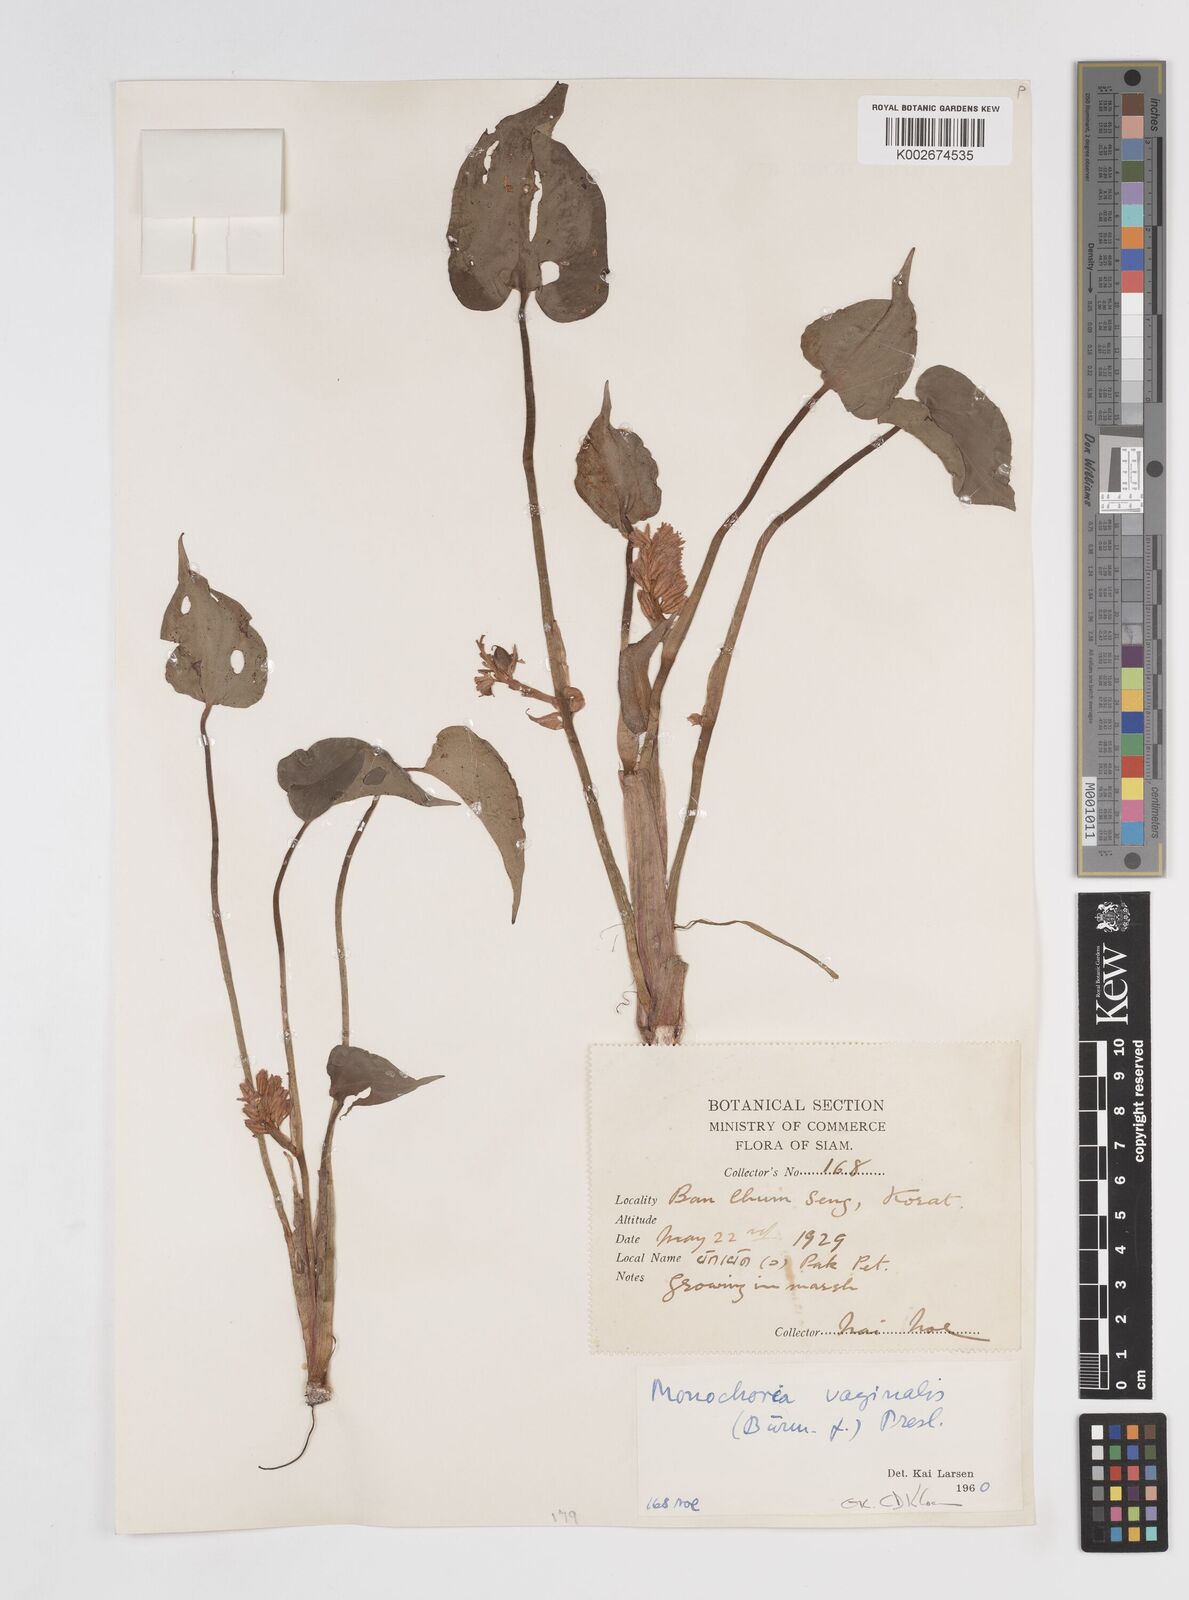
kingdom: Plantae
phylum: Tracheophyta
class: Liliopsida
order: Commelinales
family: Pontederiaceae
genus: Pontederia
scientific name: Pontederia vaginalis
